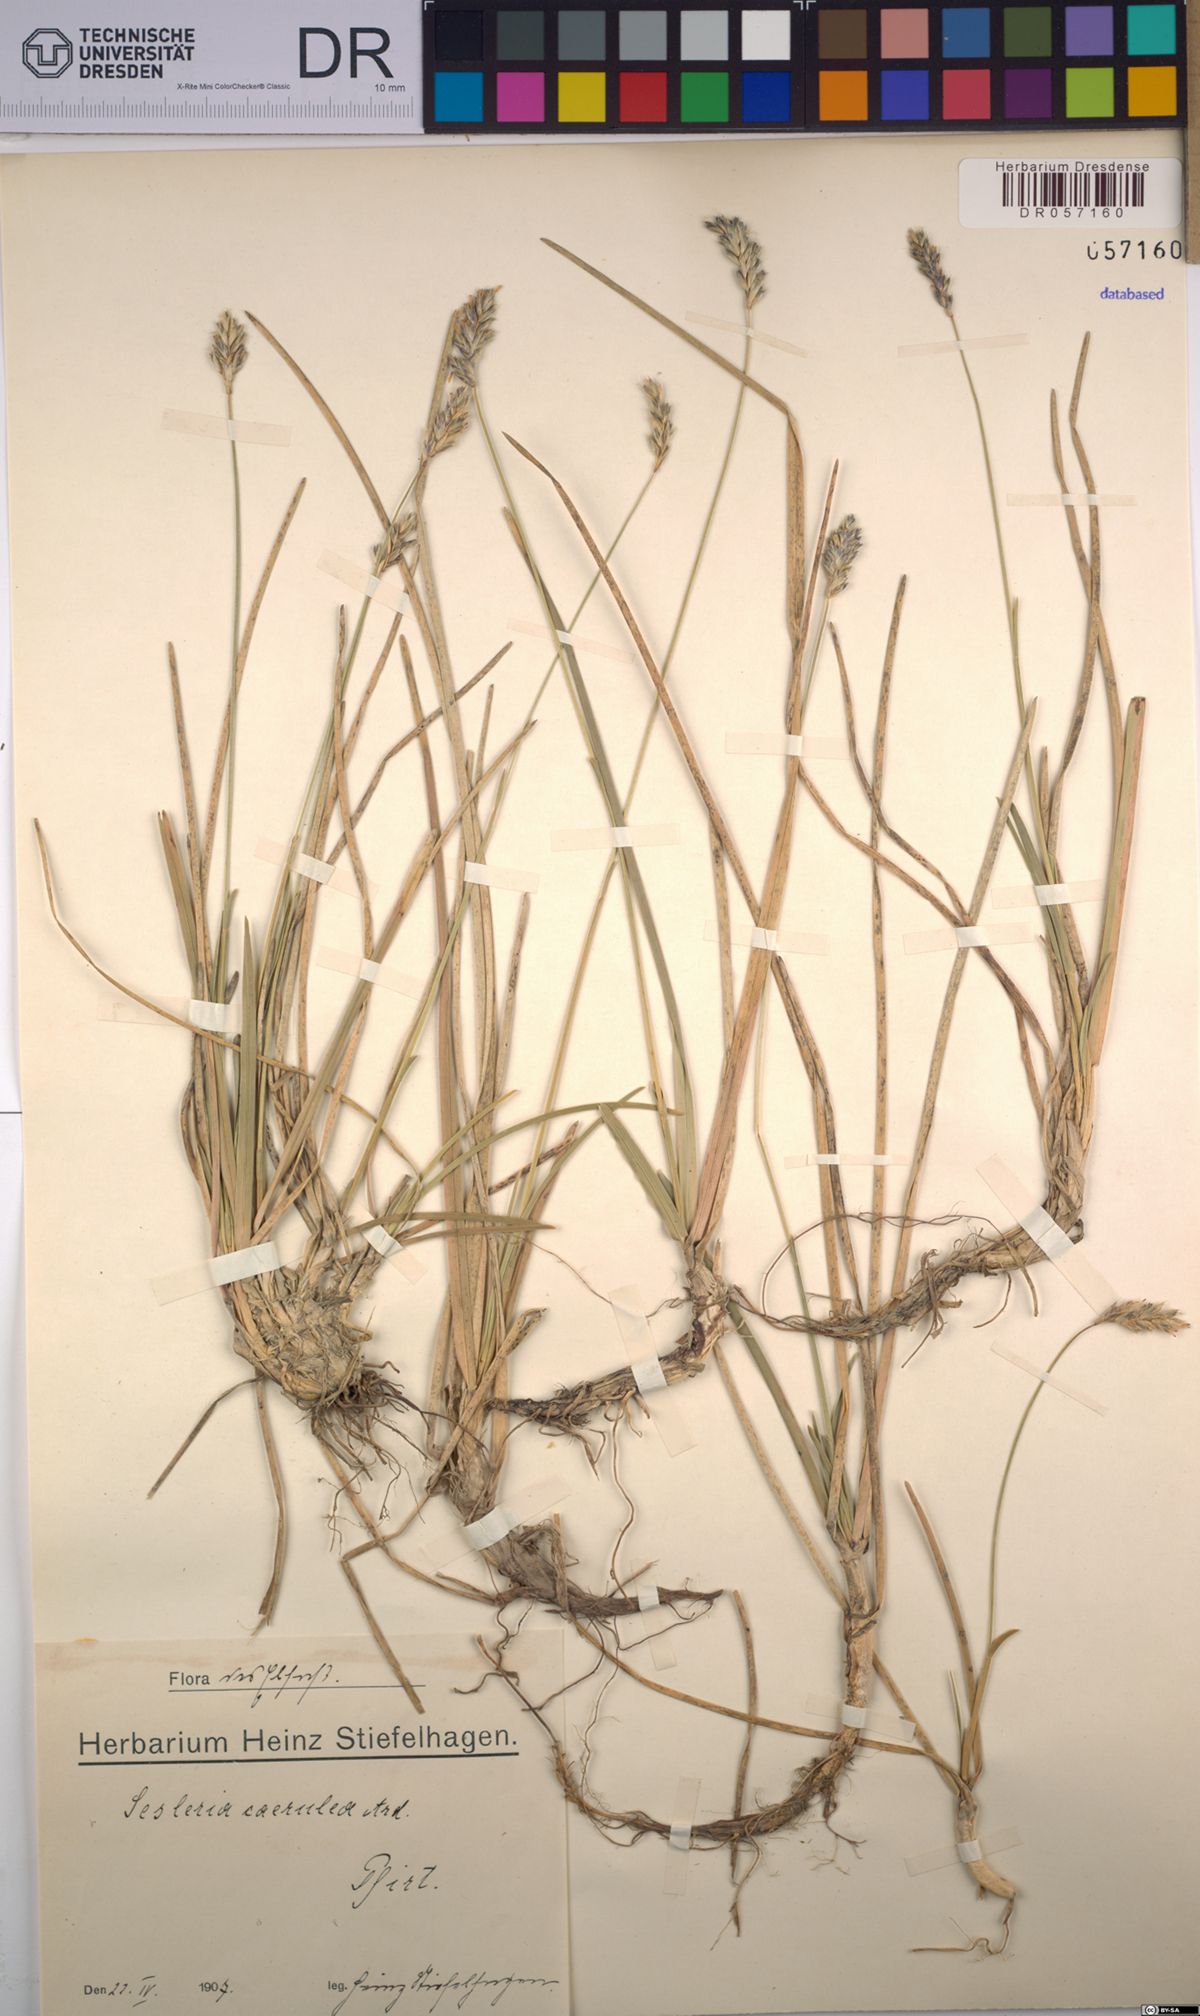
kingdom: Plantae
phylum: Tracheophyta
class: Liliopsida
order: Poales
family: Poaceae
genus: Sesleria
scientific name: Sesleria caerulea
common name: Blue moor-grass
